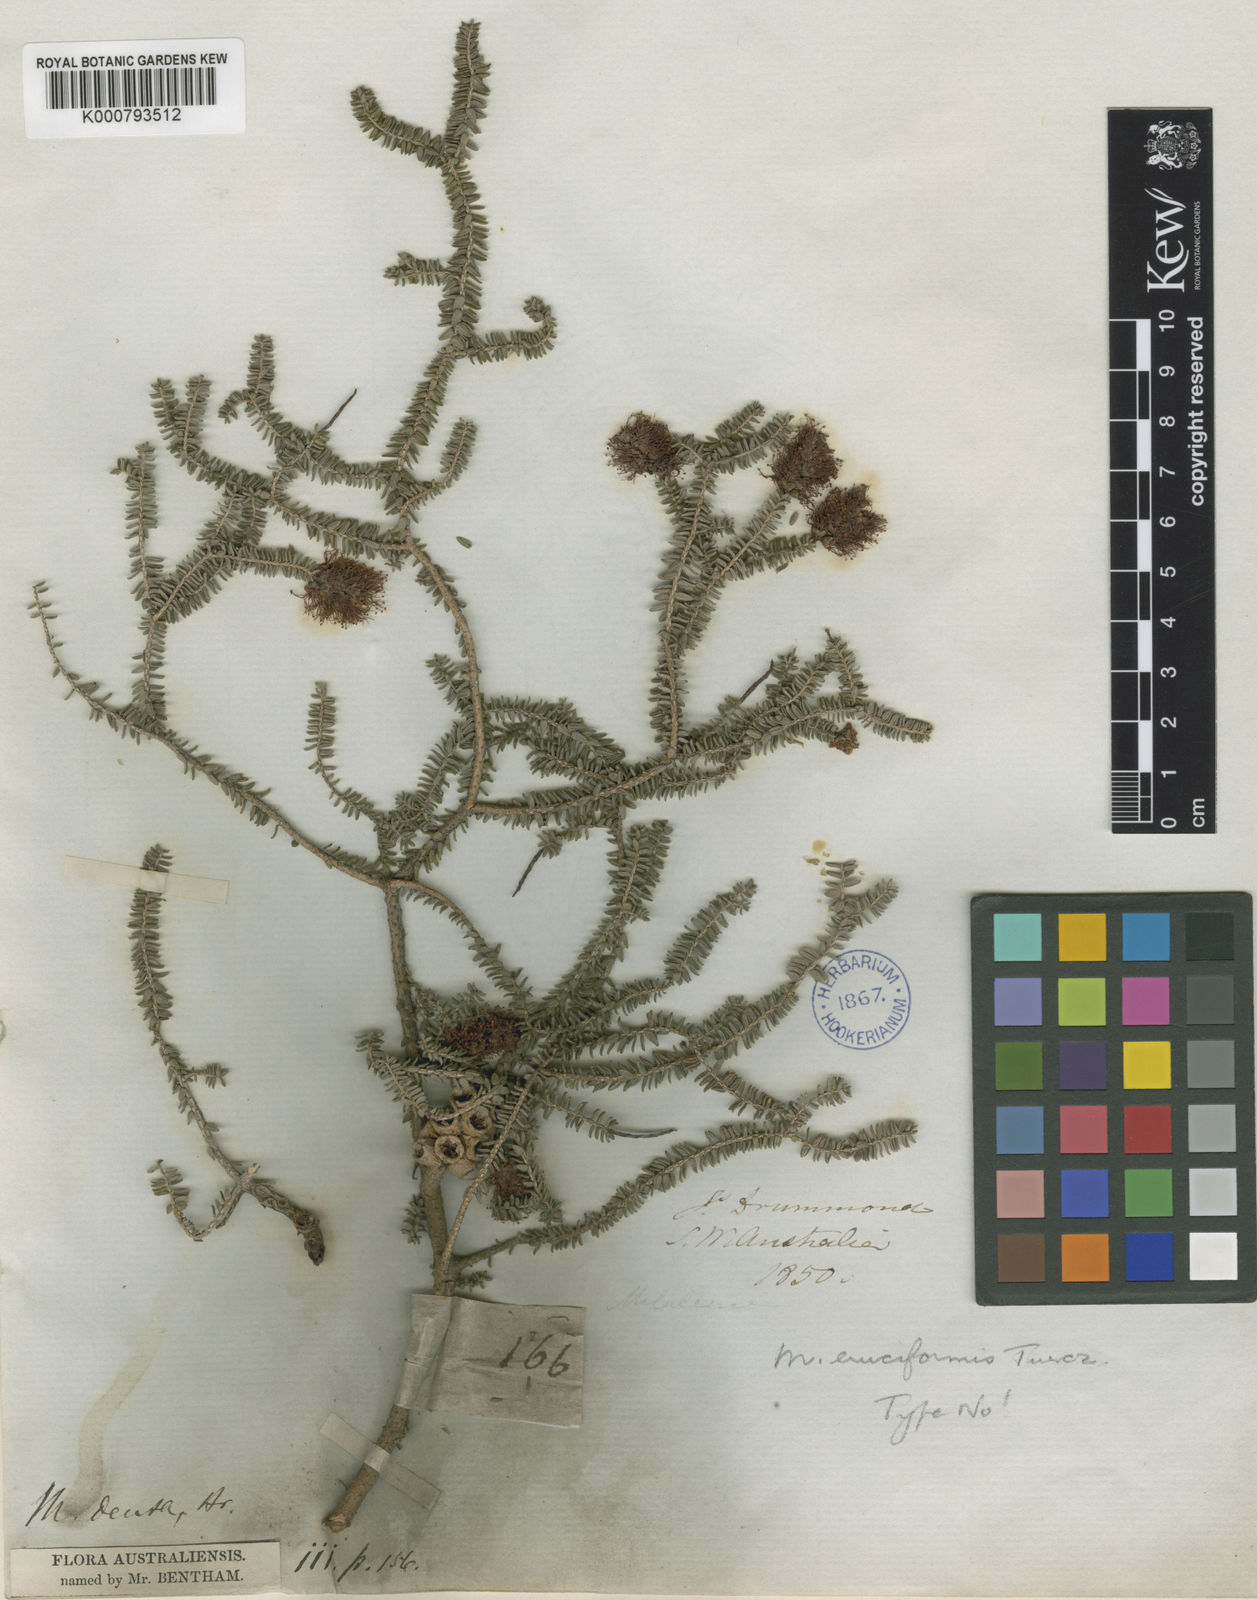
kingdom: Plantae
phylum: Tracheophyta
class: Magnoliopsida
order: Myrtales
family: Myrtaceae
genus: Melaleuca
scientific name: Melaleuca blaeriifolia
